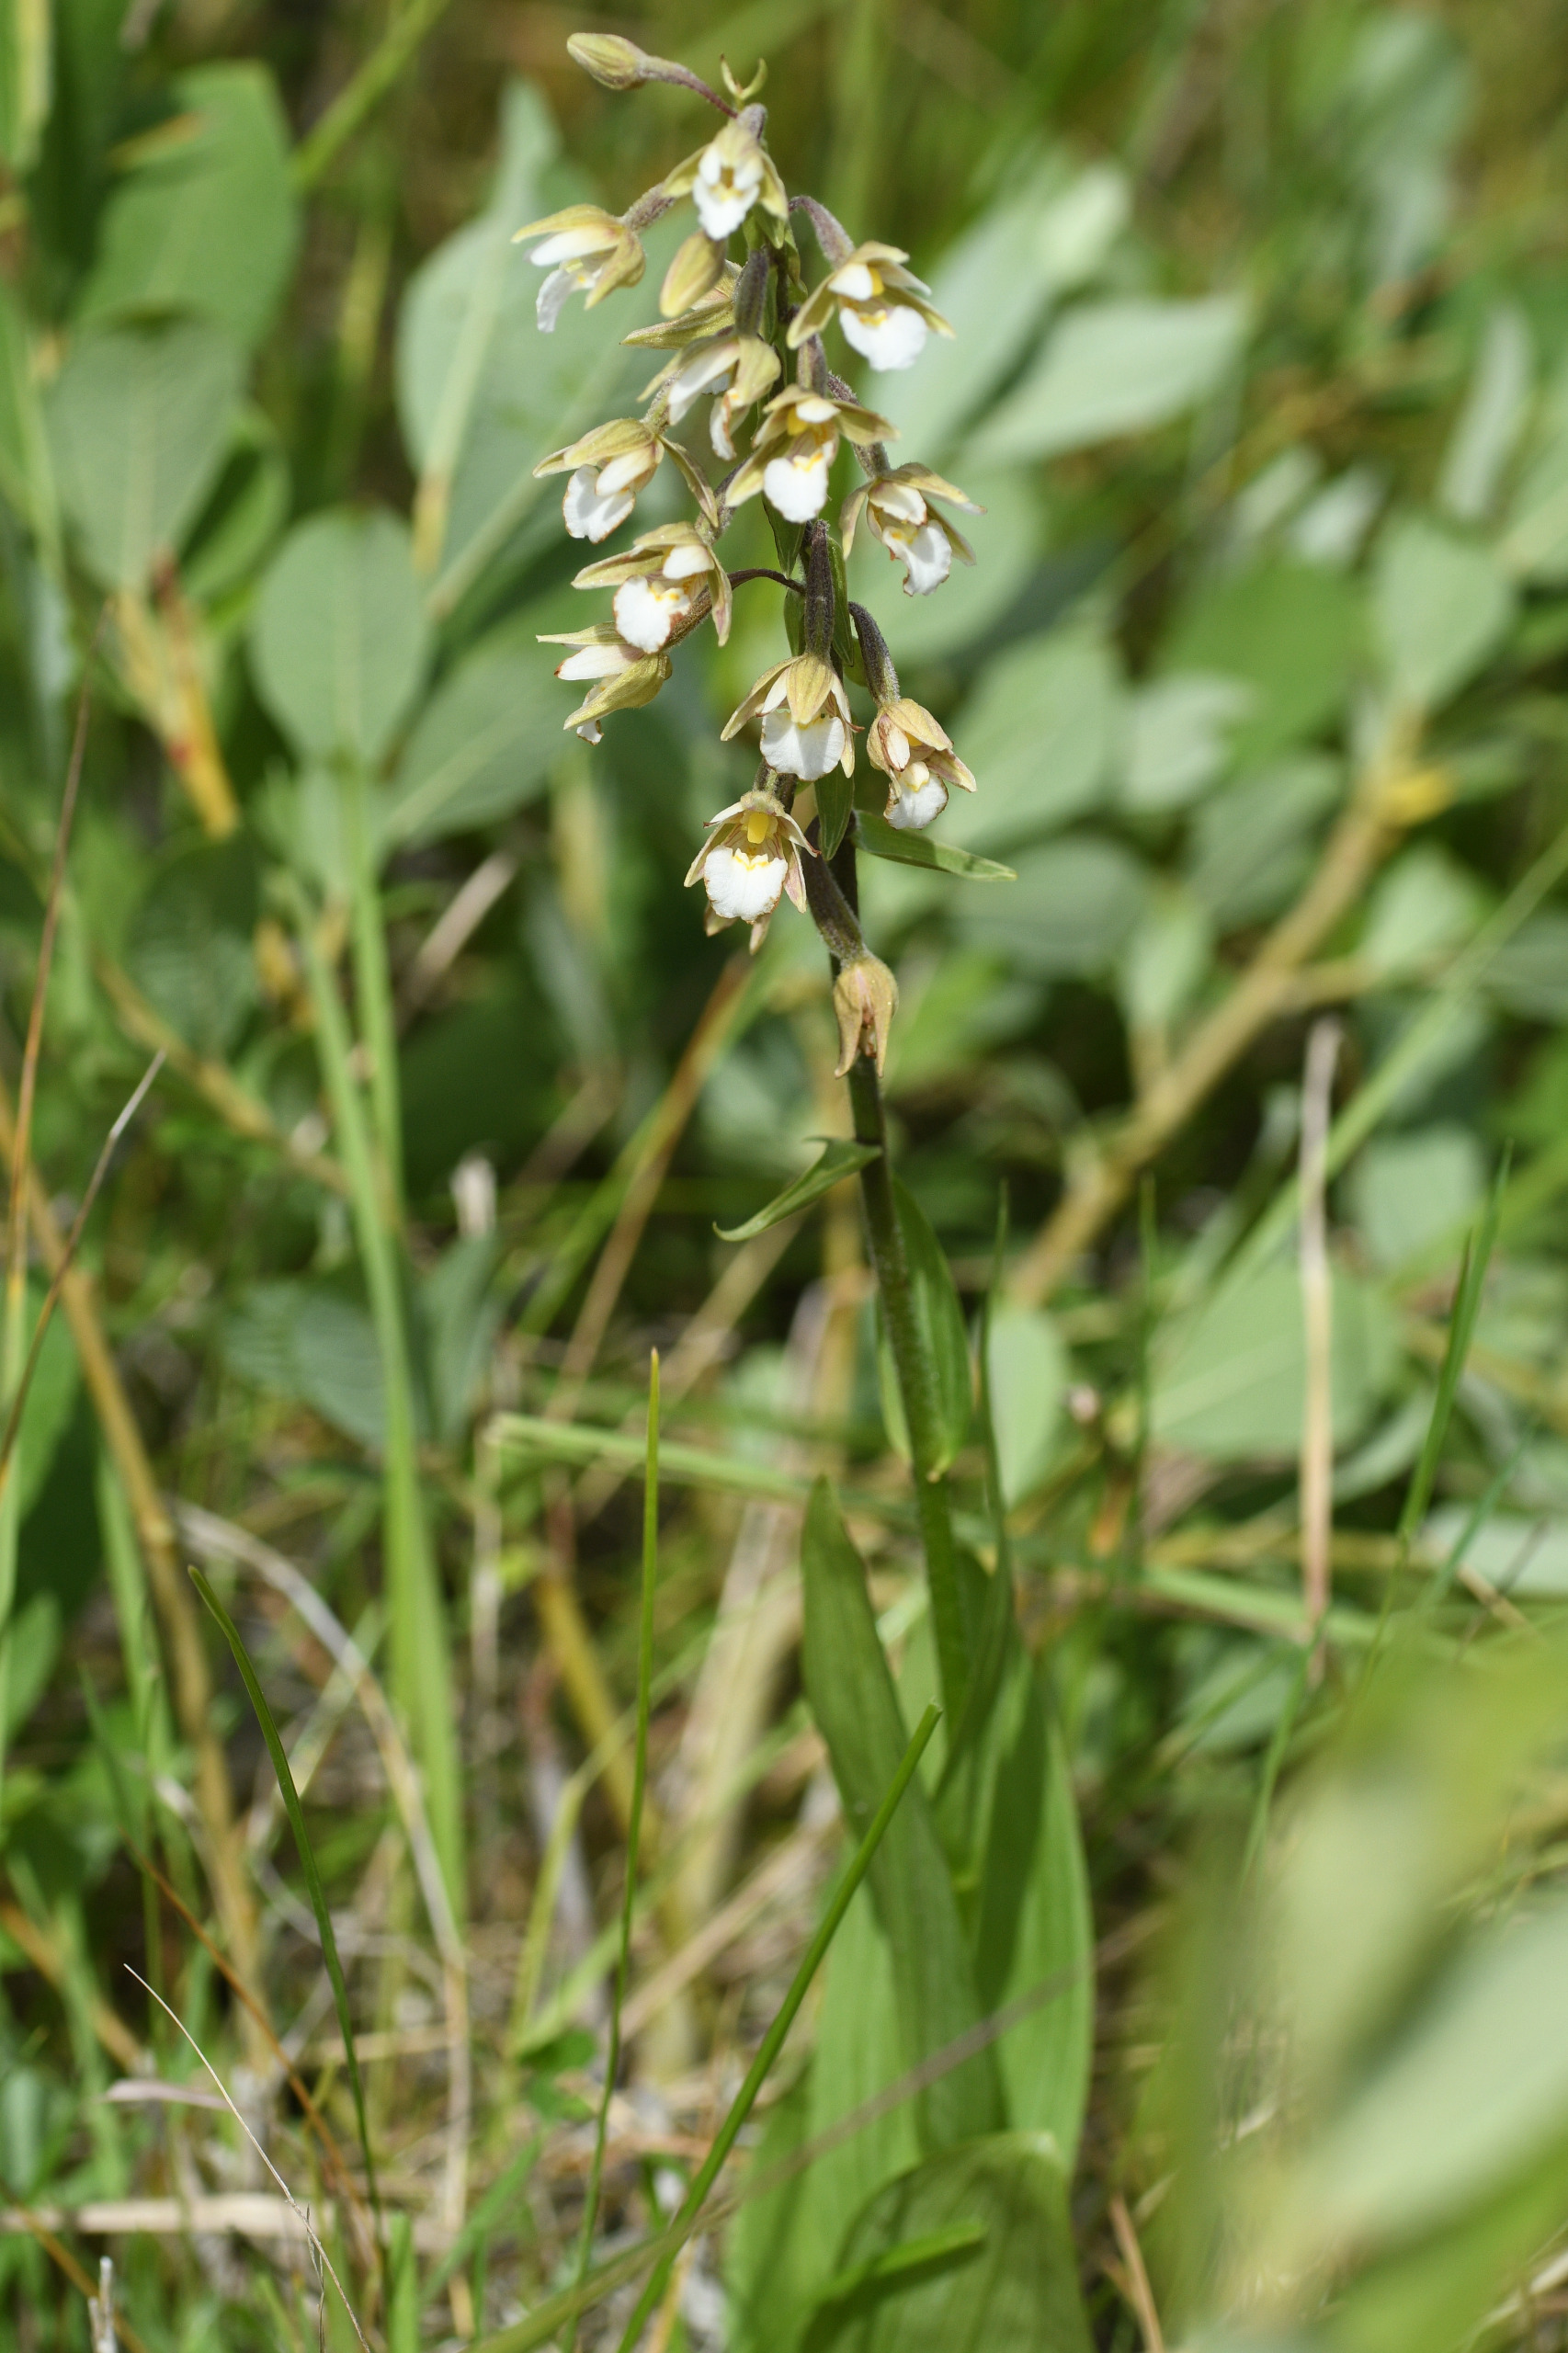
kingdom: Plantae
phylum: Tracheophyta
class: Liliopsida
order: Asparagales
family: Orchidaceae
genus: Epipactis
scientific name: Epipactis palustris
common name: Sump-hullæbe
